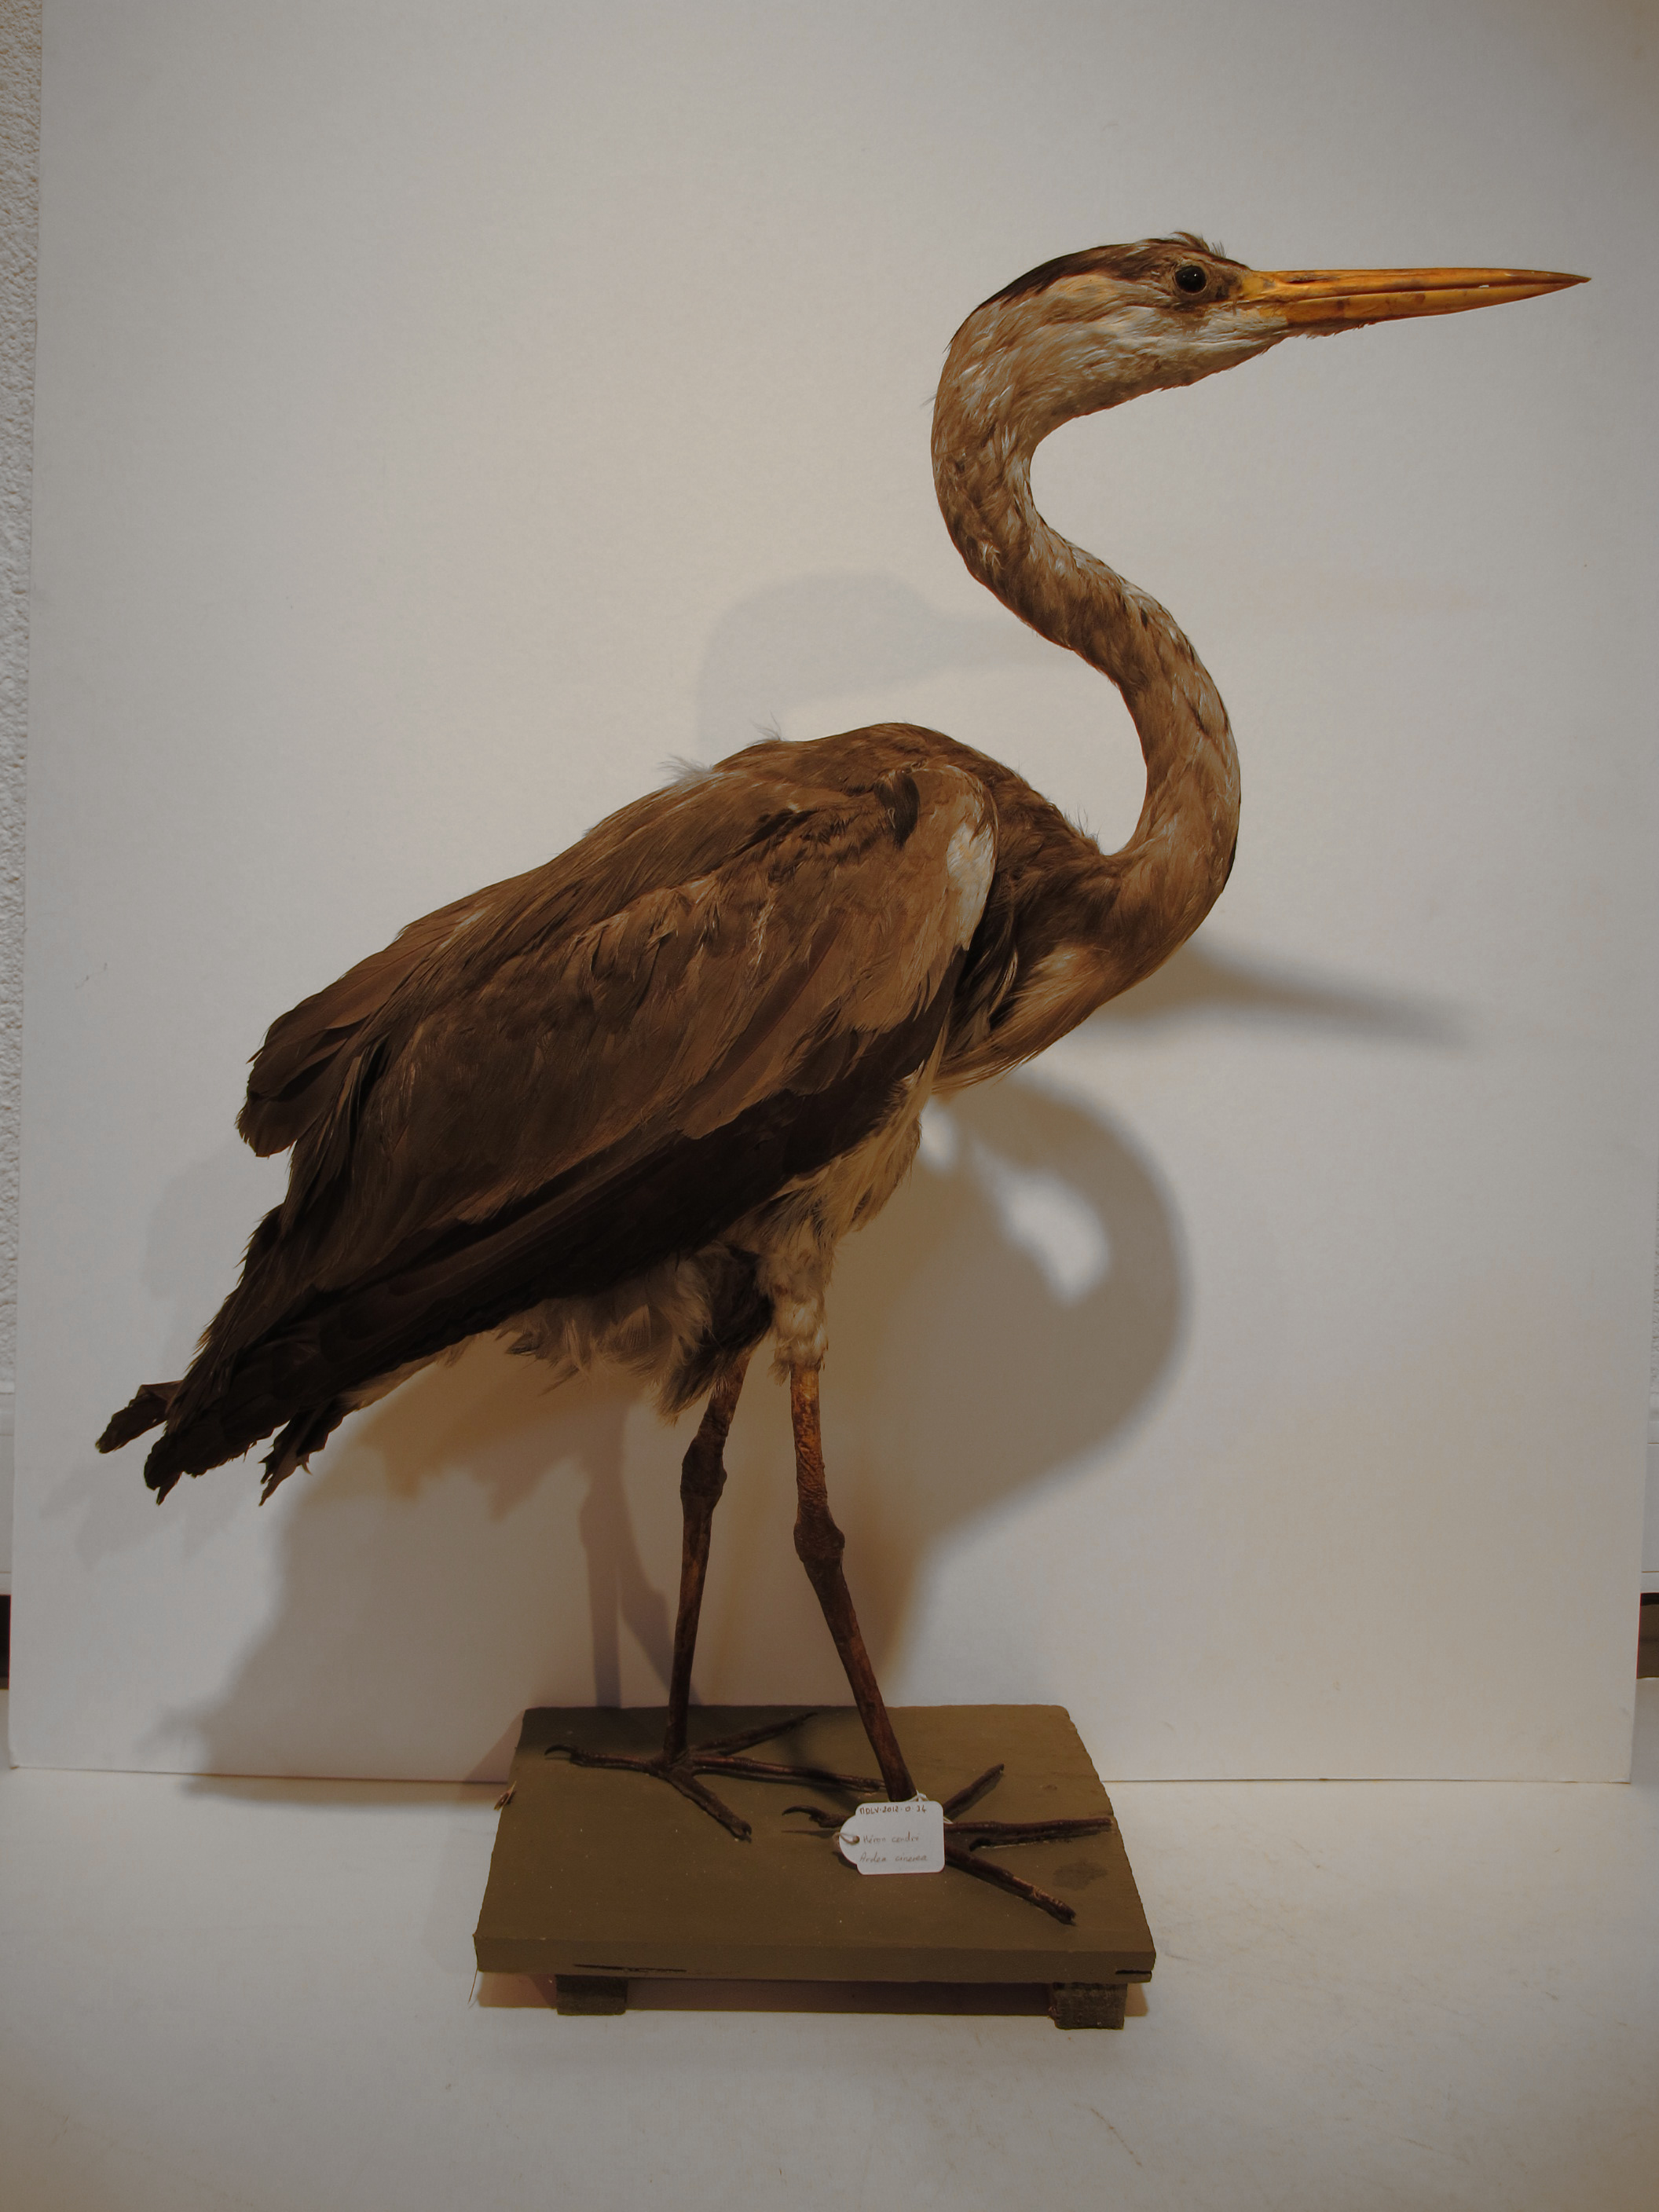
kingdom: Animalia
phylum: Chordata
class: Aves
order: Pelecaniformes
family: Ardeidae
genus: Ardea
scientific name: Ardea cinerea
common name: Grey Heron
